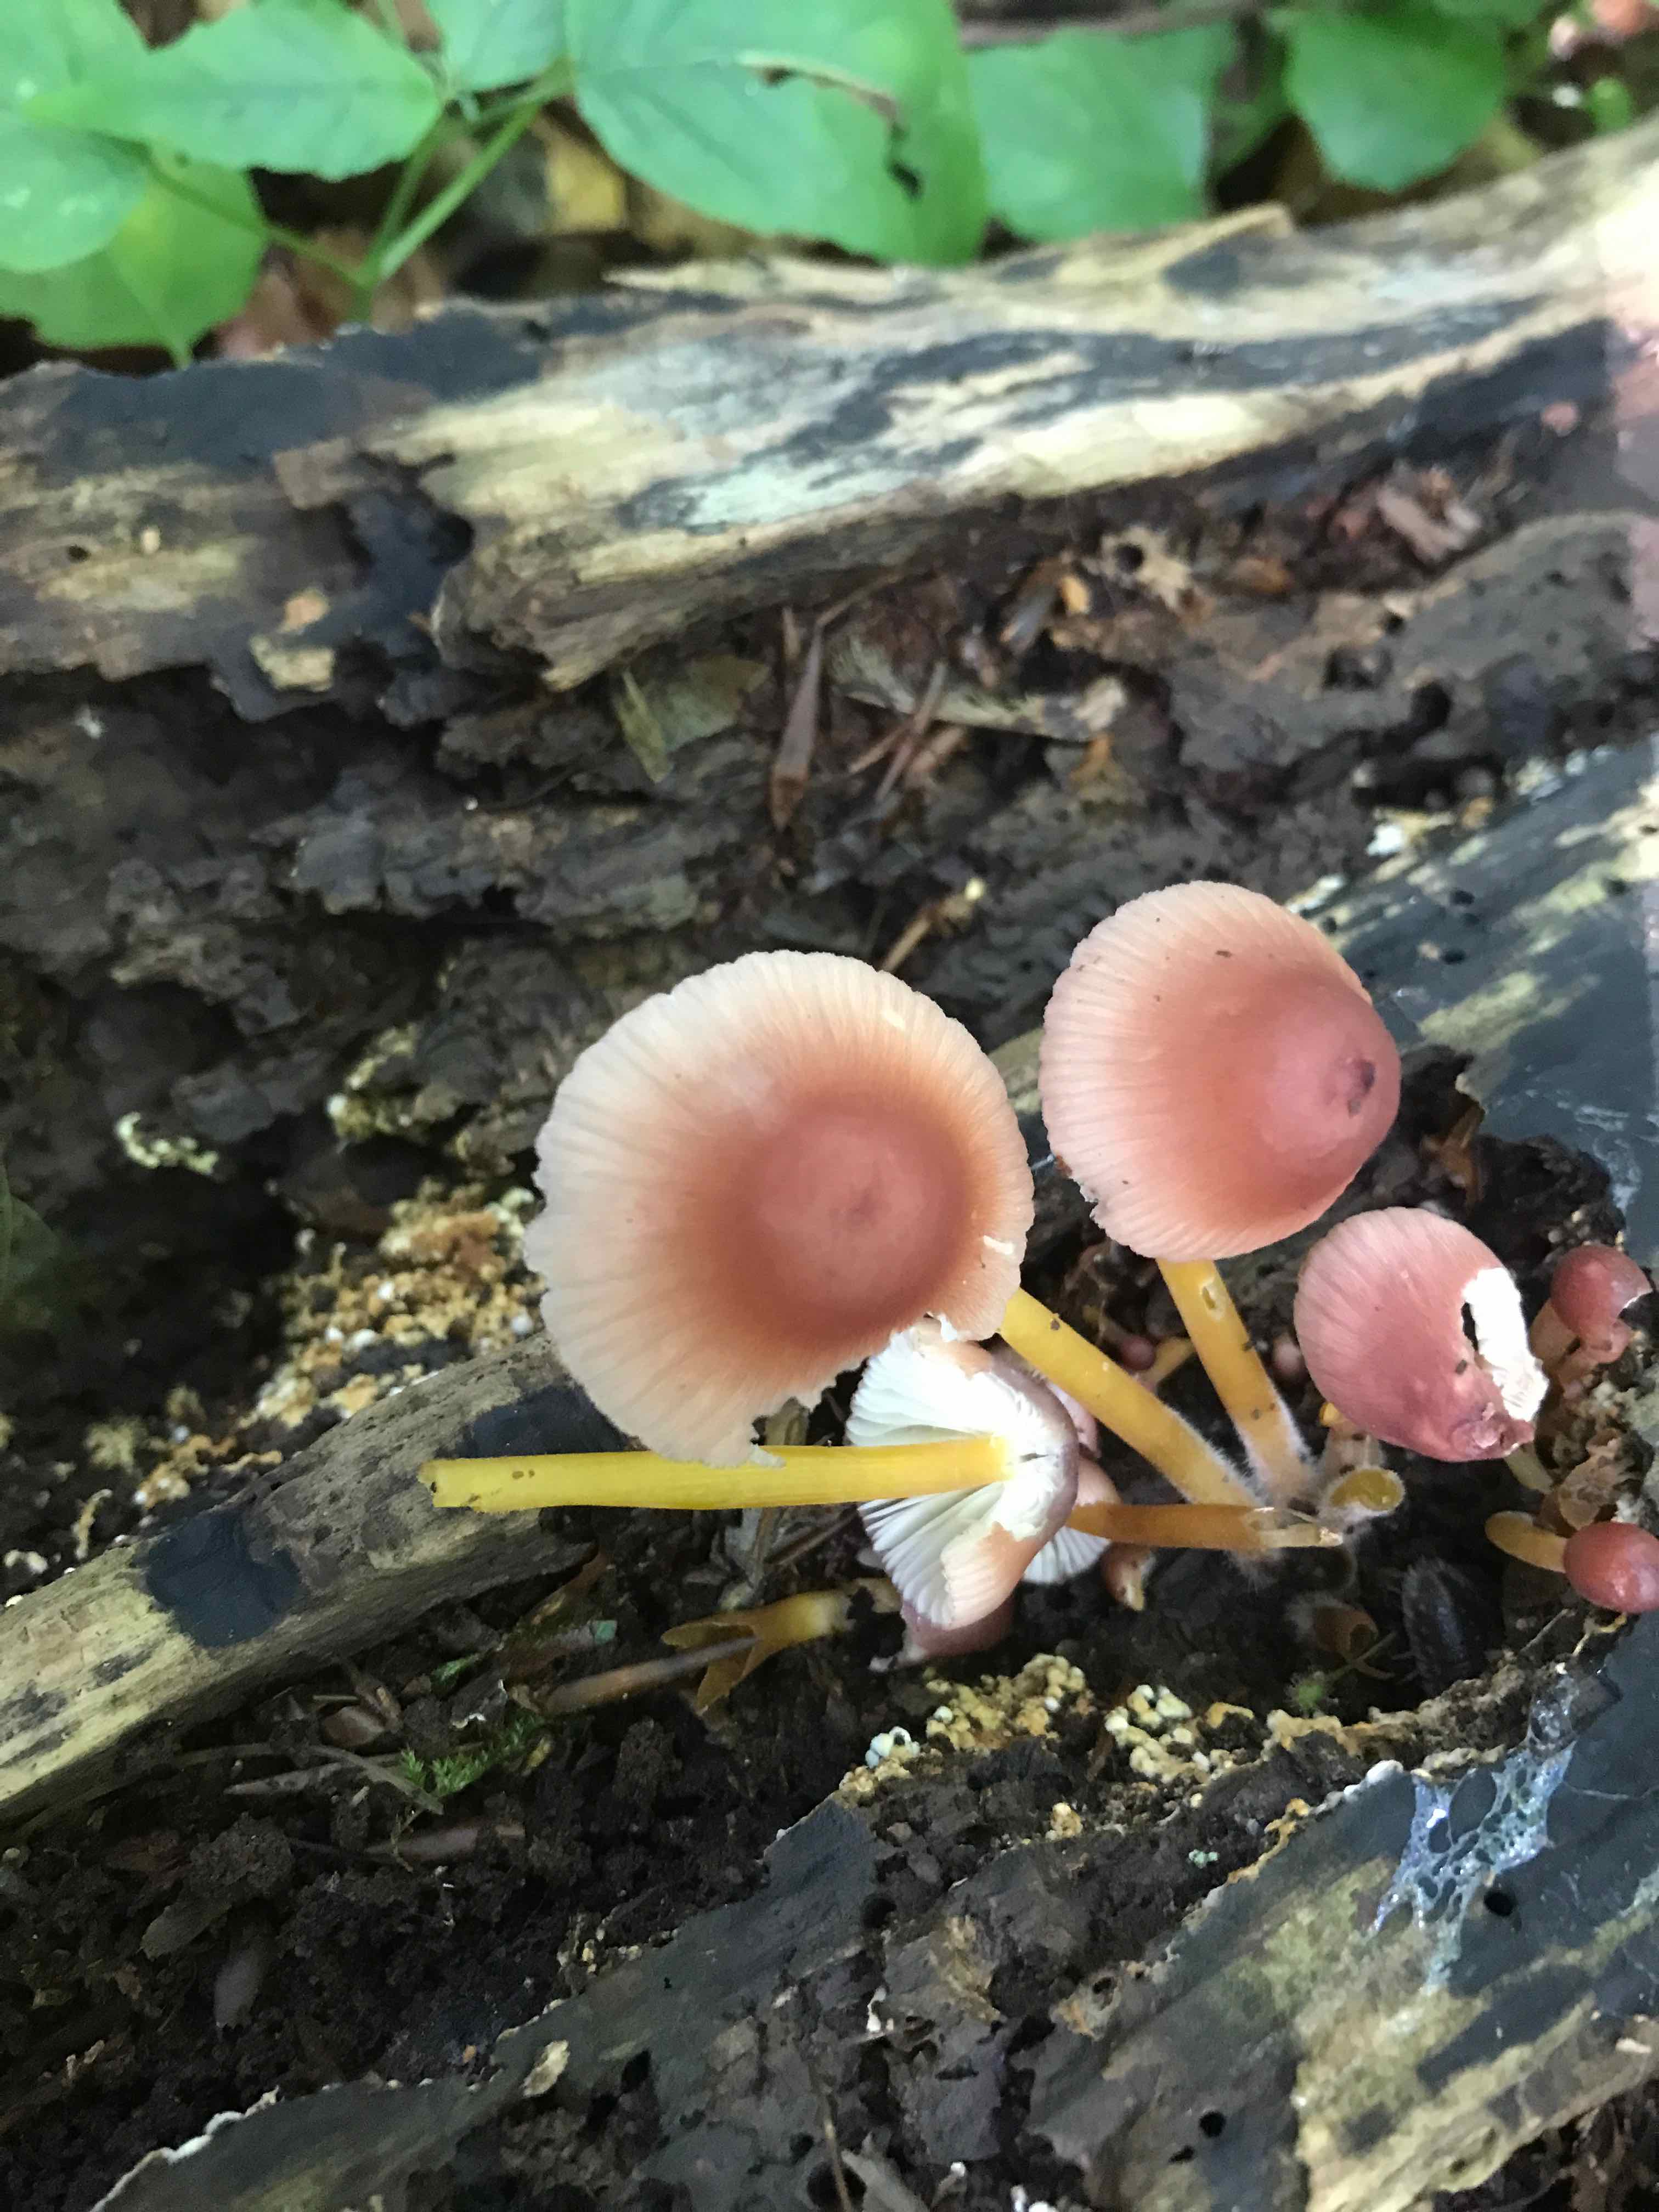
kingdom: Fungi
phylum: Basidiomycota
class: Agaricomycetes
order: Agaricales
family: Mycenaceae
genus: Mycena
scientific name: Mycena renati
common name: smuk huesvamp
